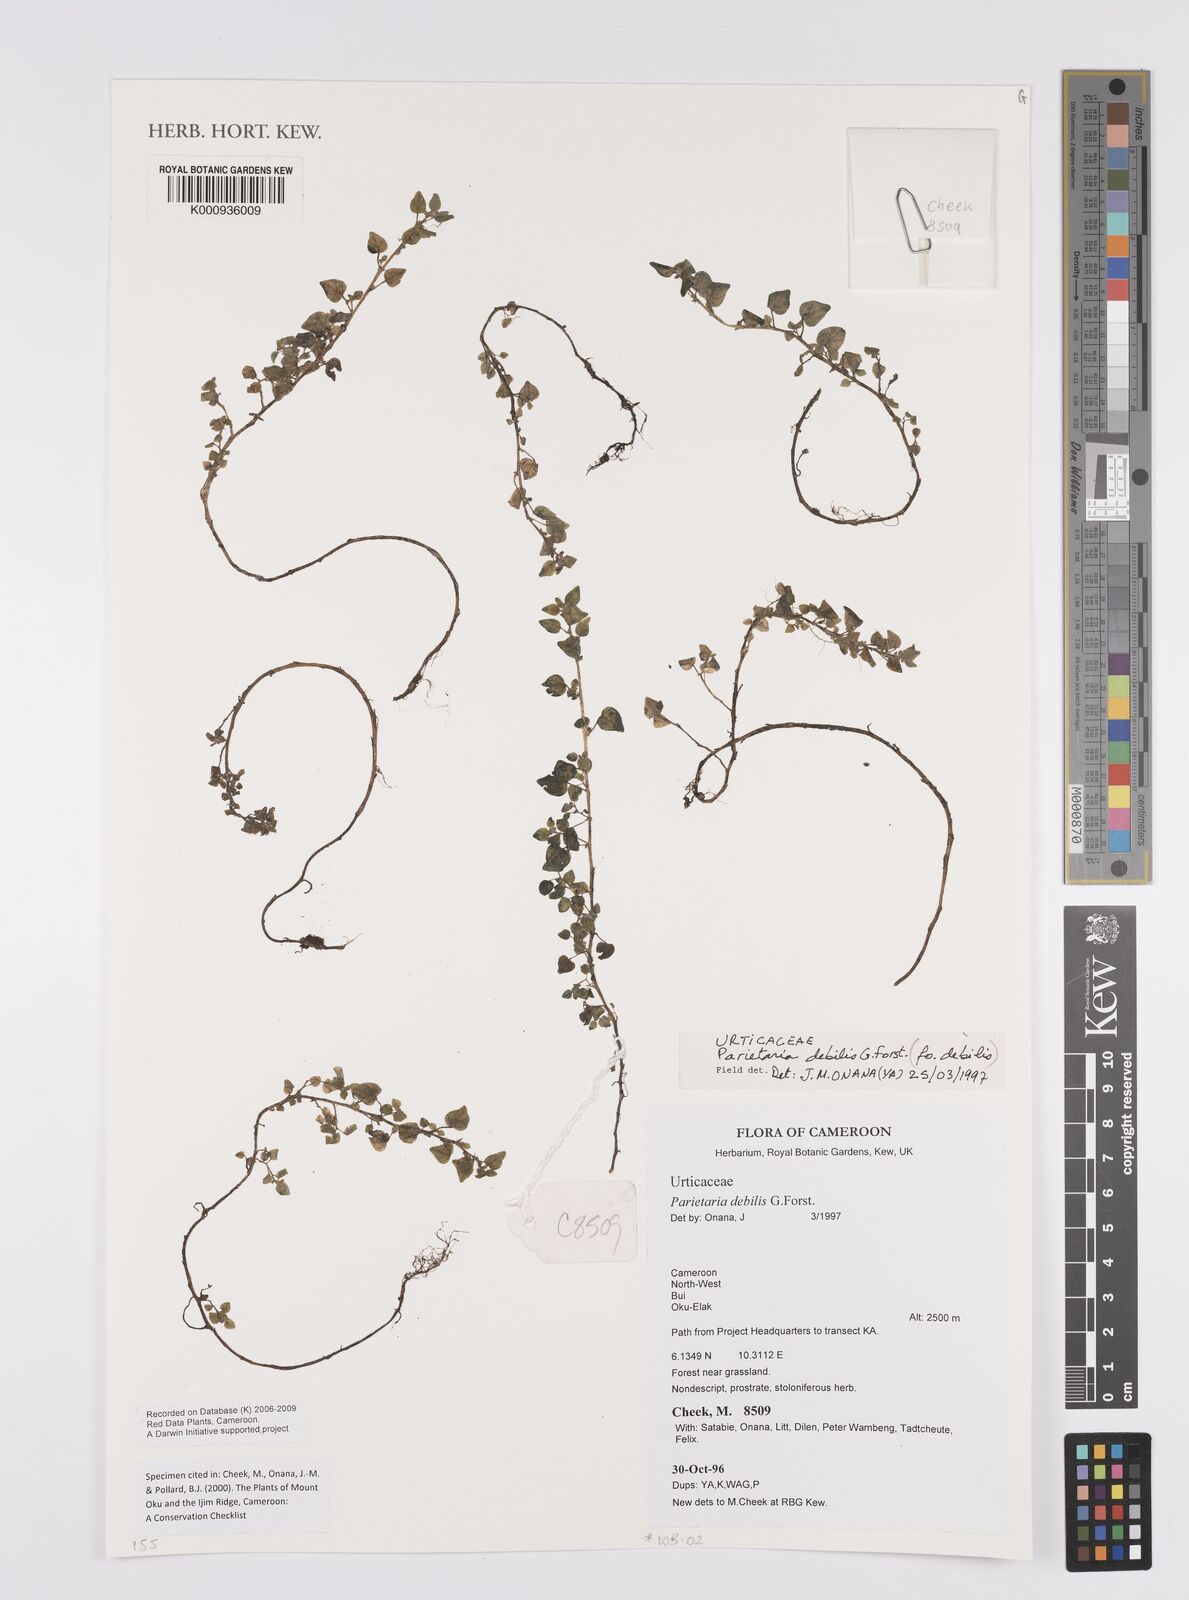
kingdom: Plantae
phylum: Tracheophyta
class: Magnoliopsida
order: Rosales
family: Urticaceae
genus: Parietaria
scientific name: Parietaria debilis
